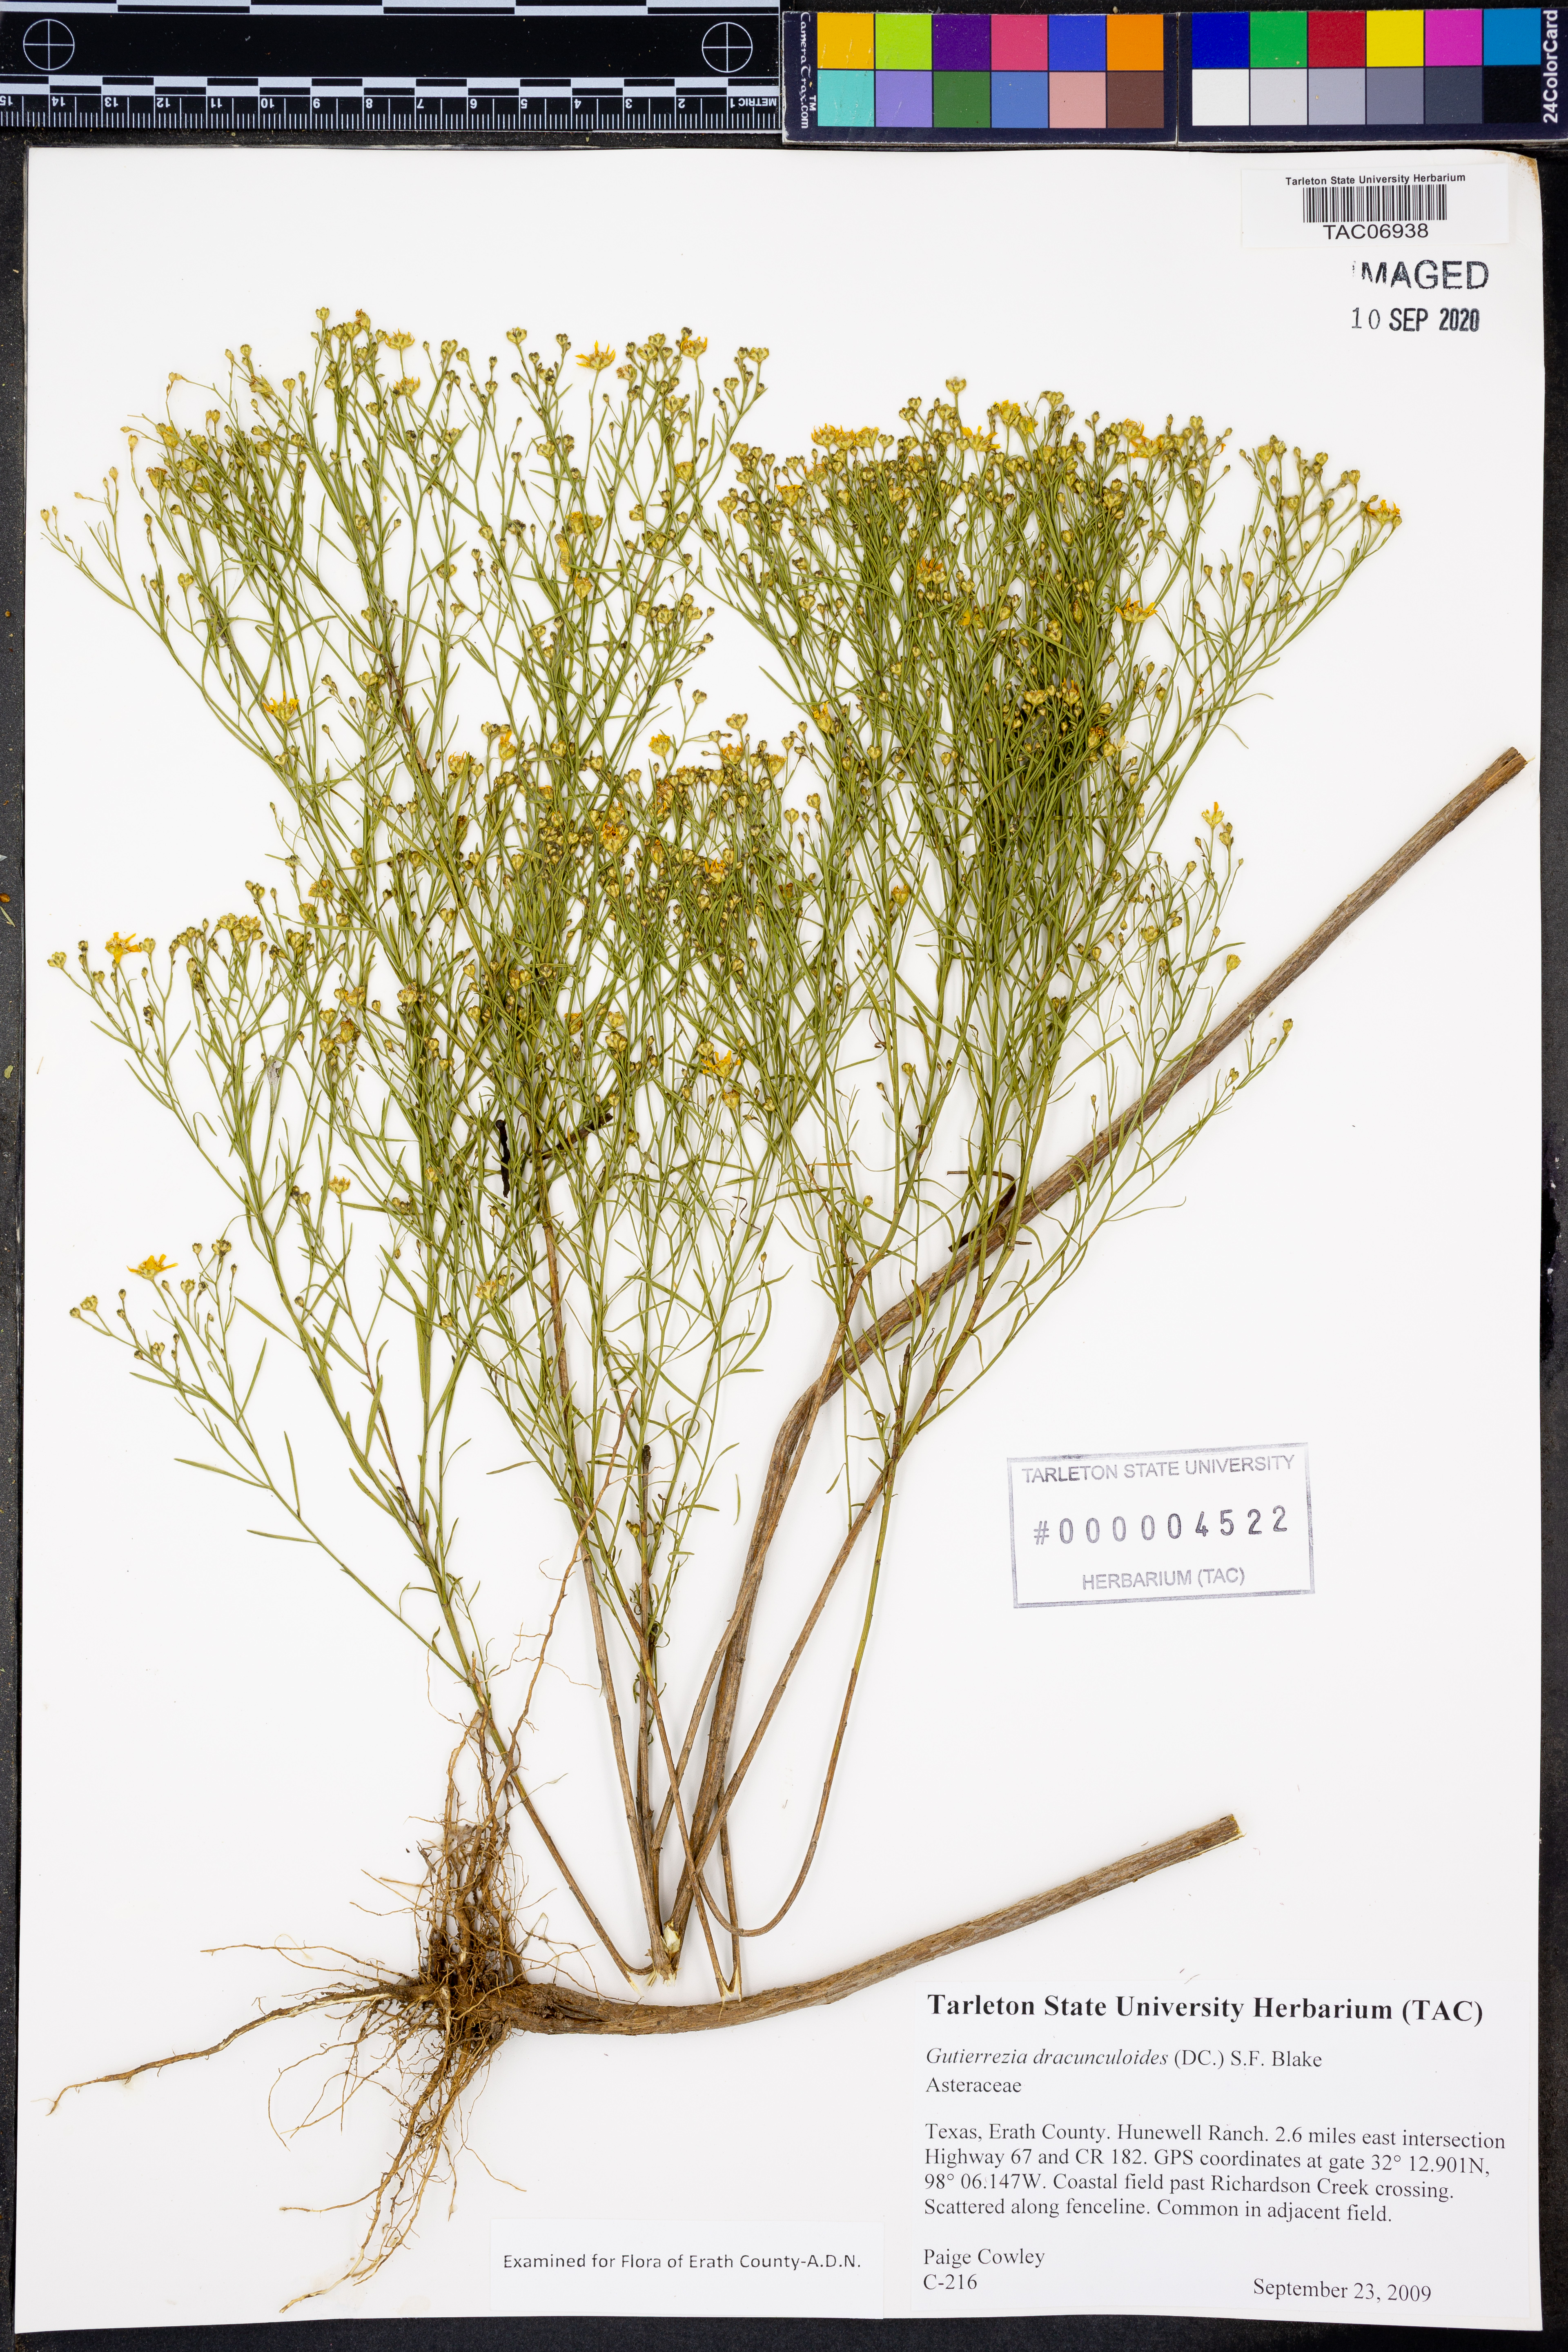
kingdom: Plantae
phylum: Tracheophyta
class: Magnoliopsida
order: Asterales
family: Asteraceae
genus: Amphiachyris
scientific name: Amphiachyris dracunculoides
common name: Broomweed
